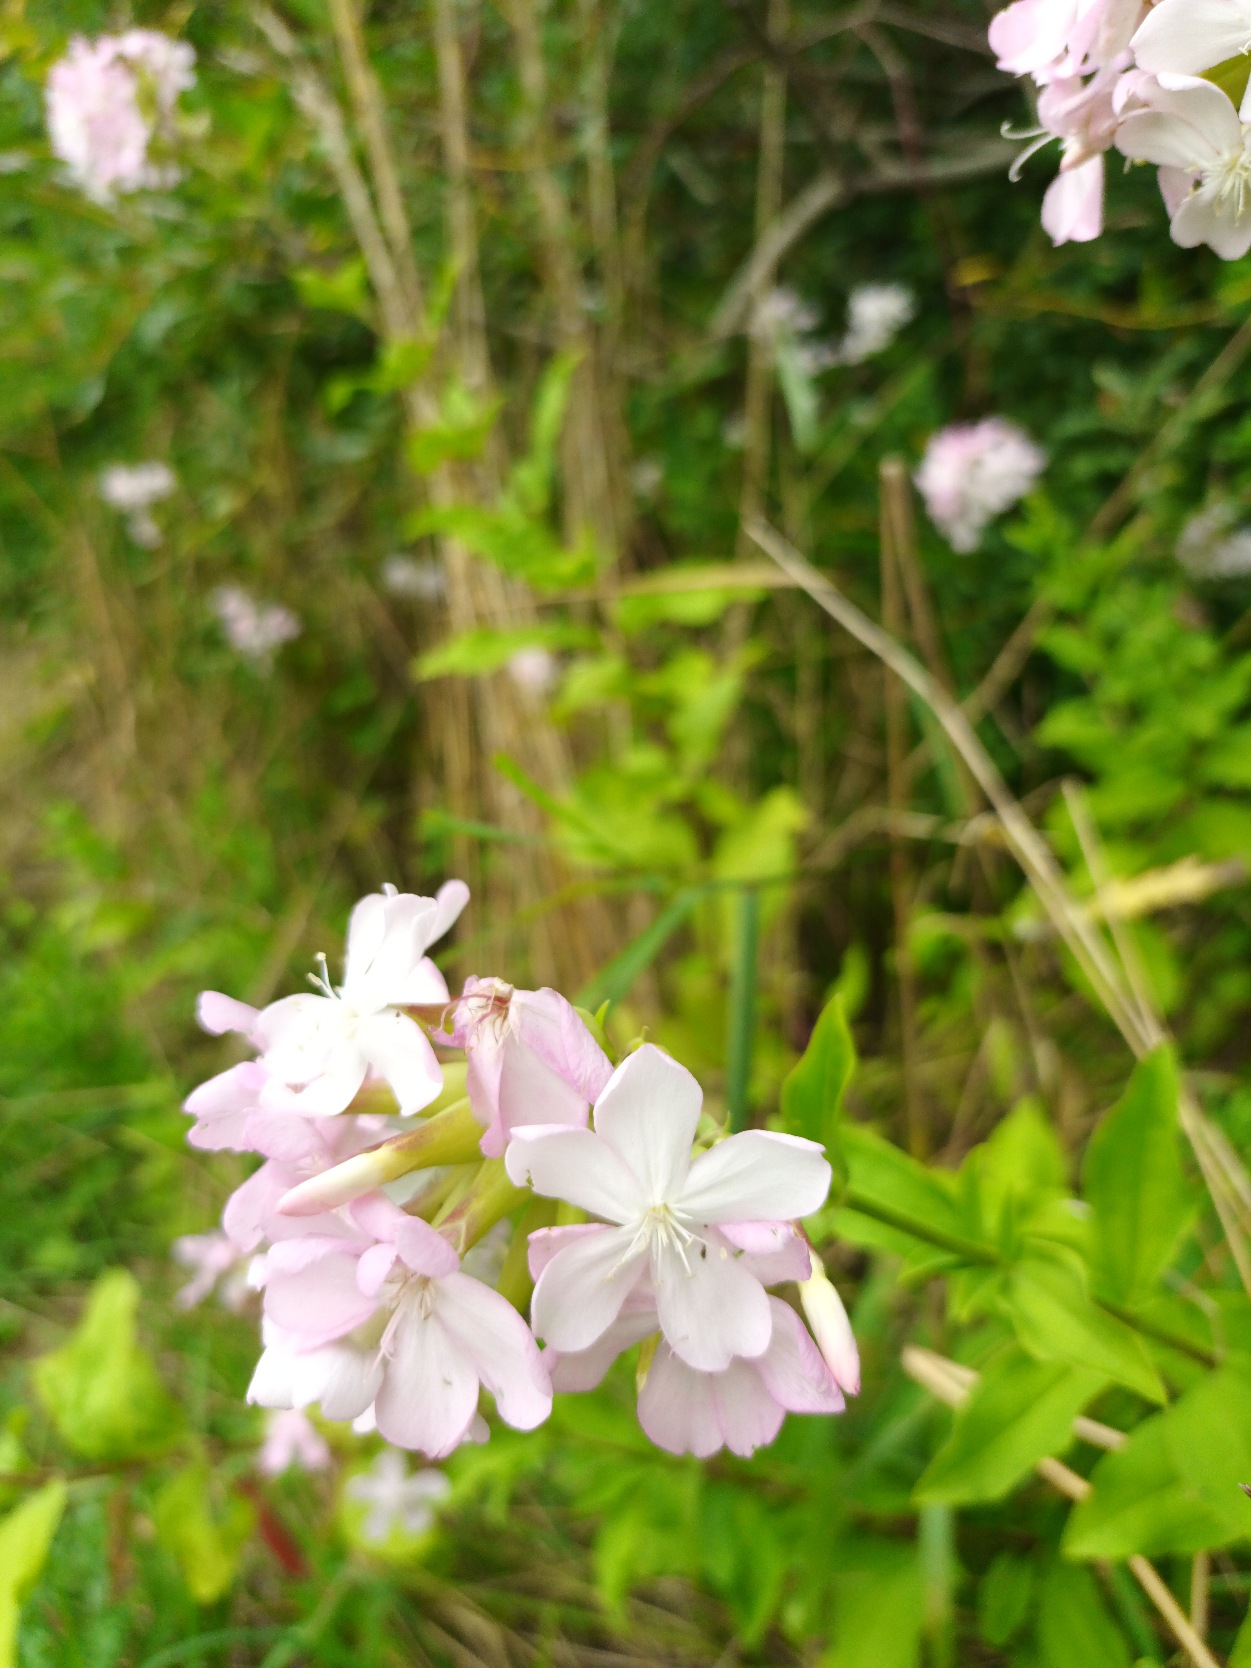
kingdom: Plantae
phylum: Tracheophyta
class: Magnoliopsida
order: Caryophyllales
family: Caryophyllaceae
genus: Saponaria
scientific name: Saponaria officinalis
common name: Sæbeurt
